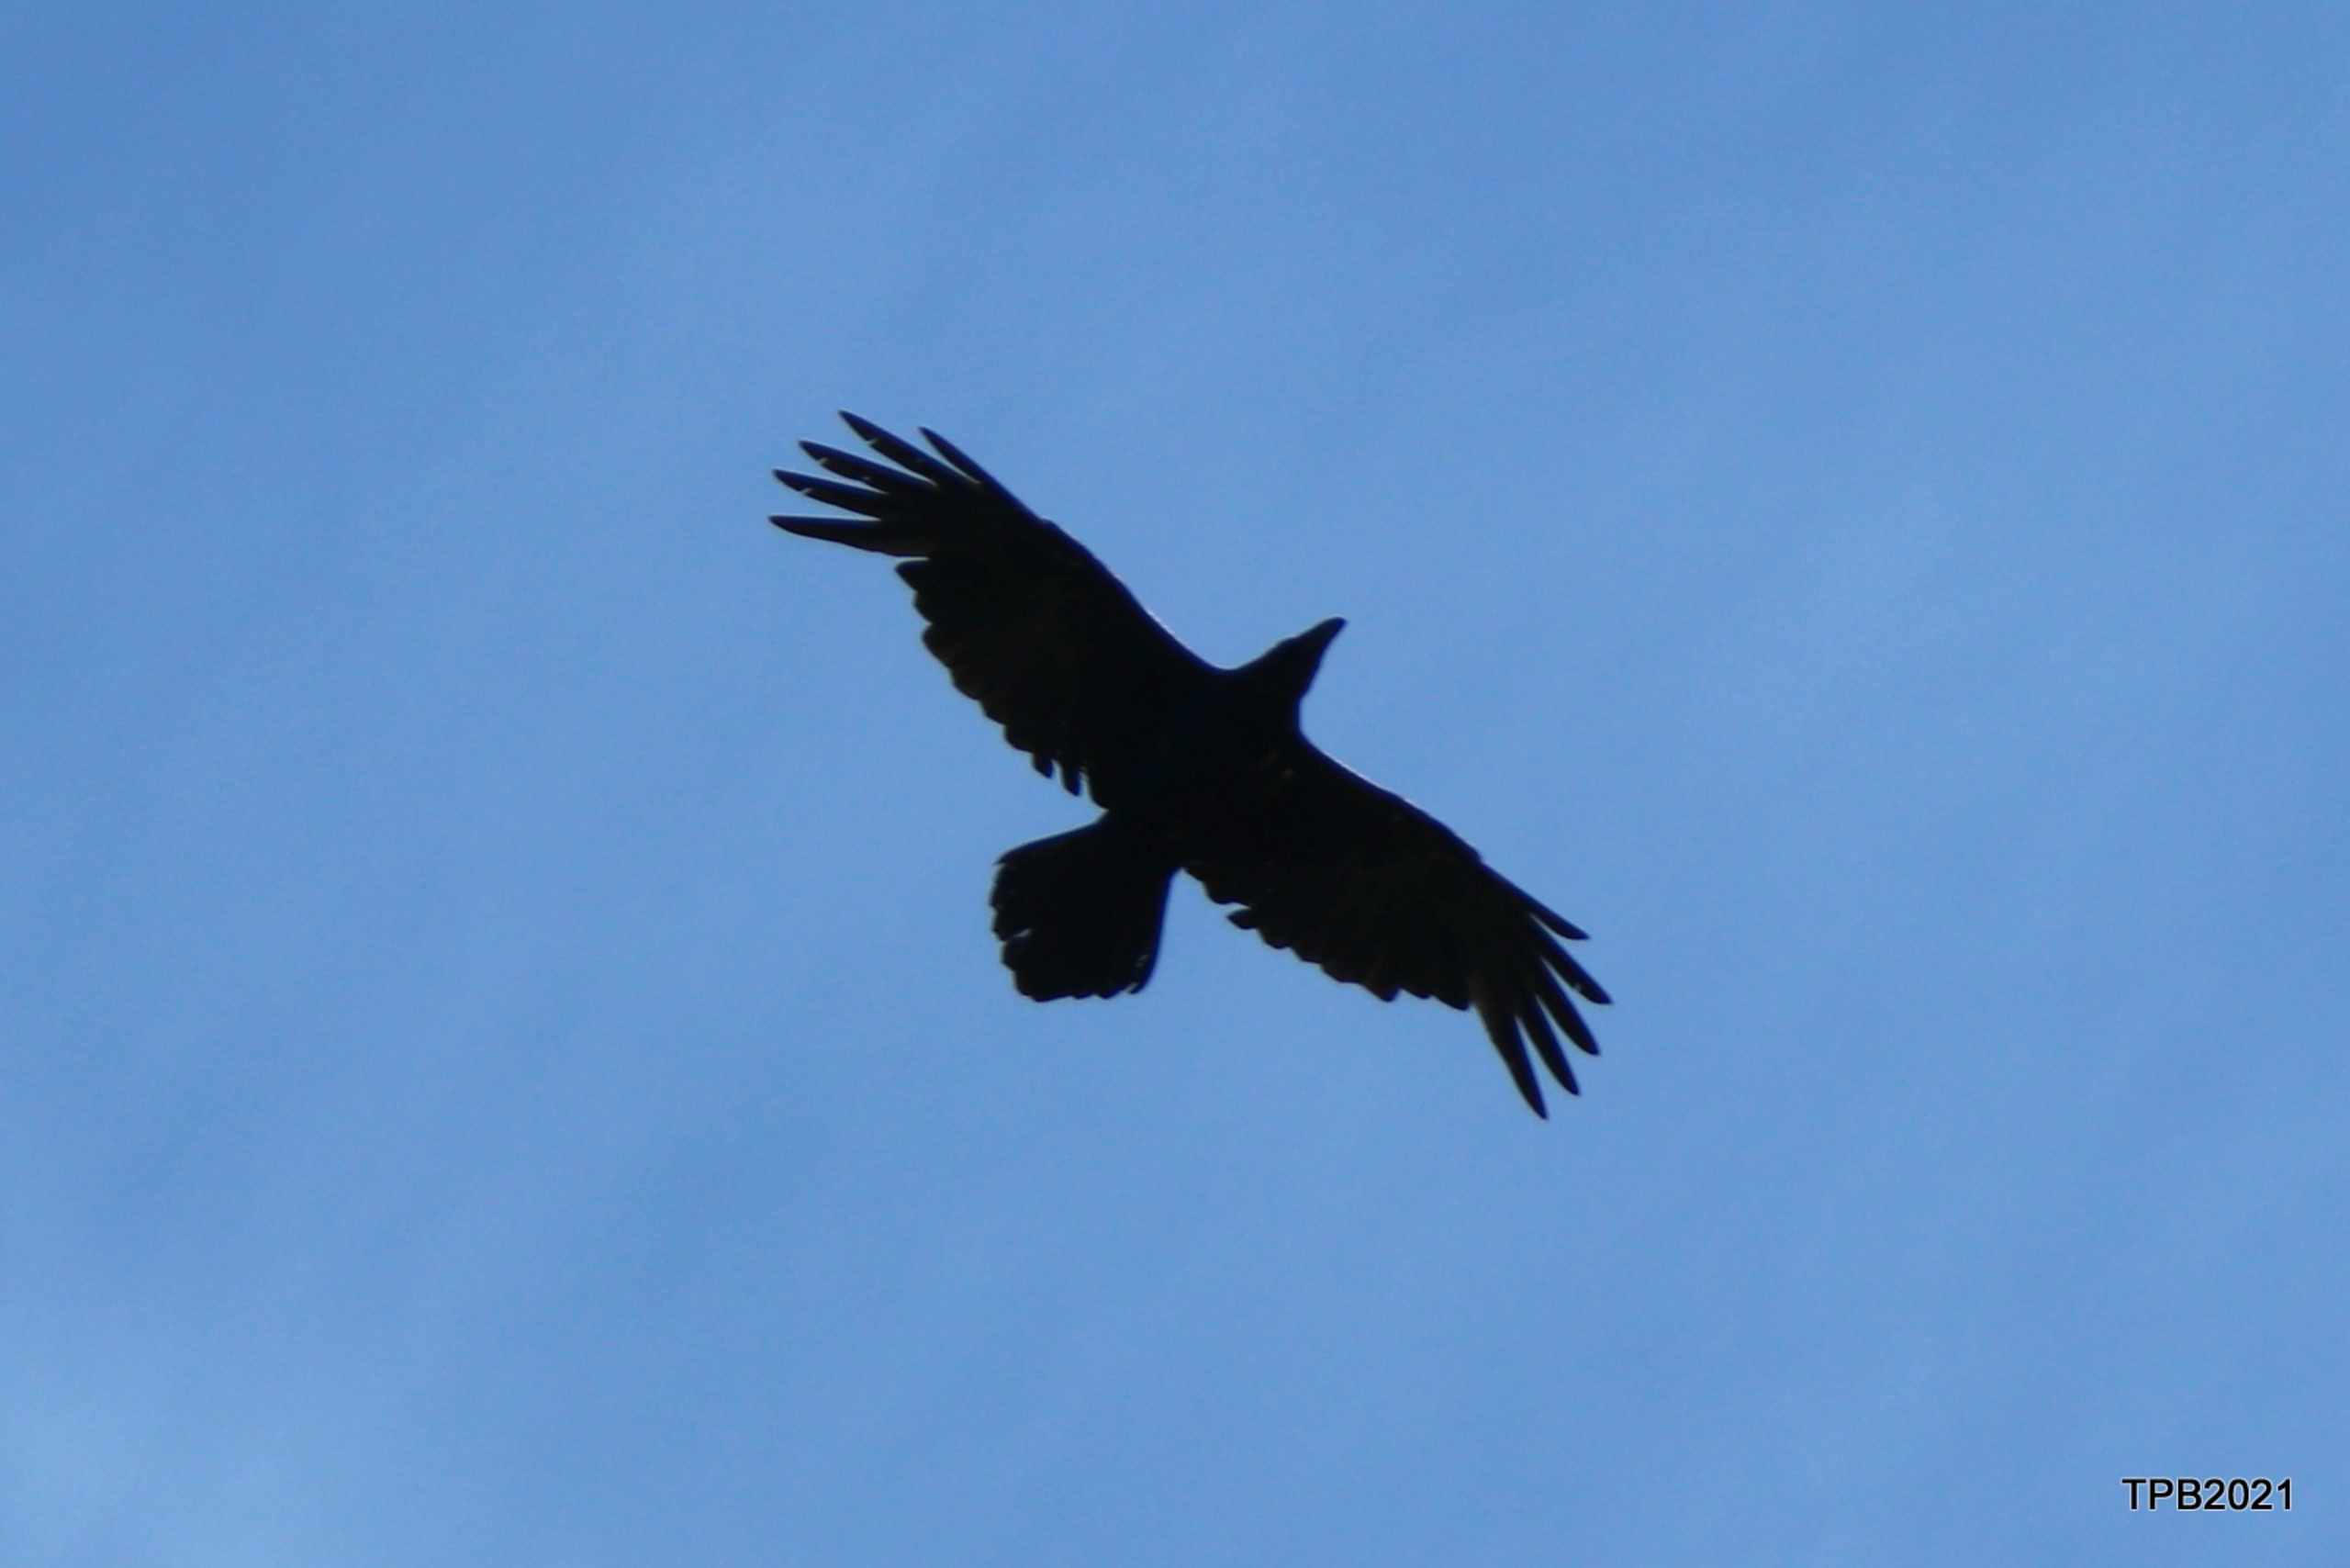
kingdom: Animalia
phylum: Chordata
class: Aves
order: Passeriformes
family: Corvidae
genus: Corvus
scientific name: Corvus corax
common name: Ravn
